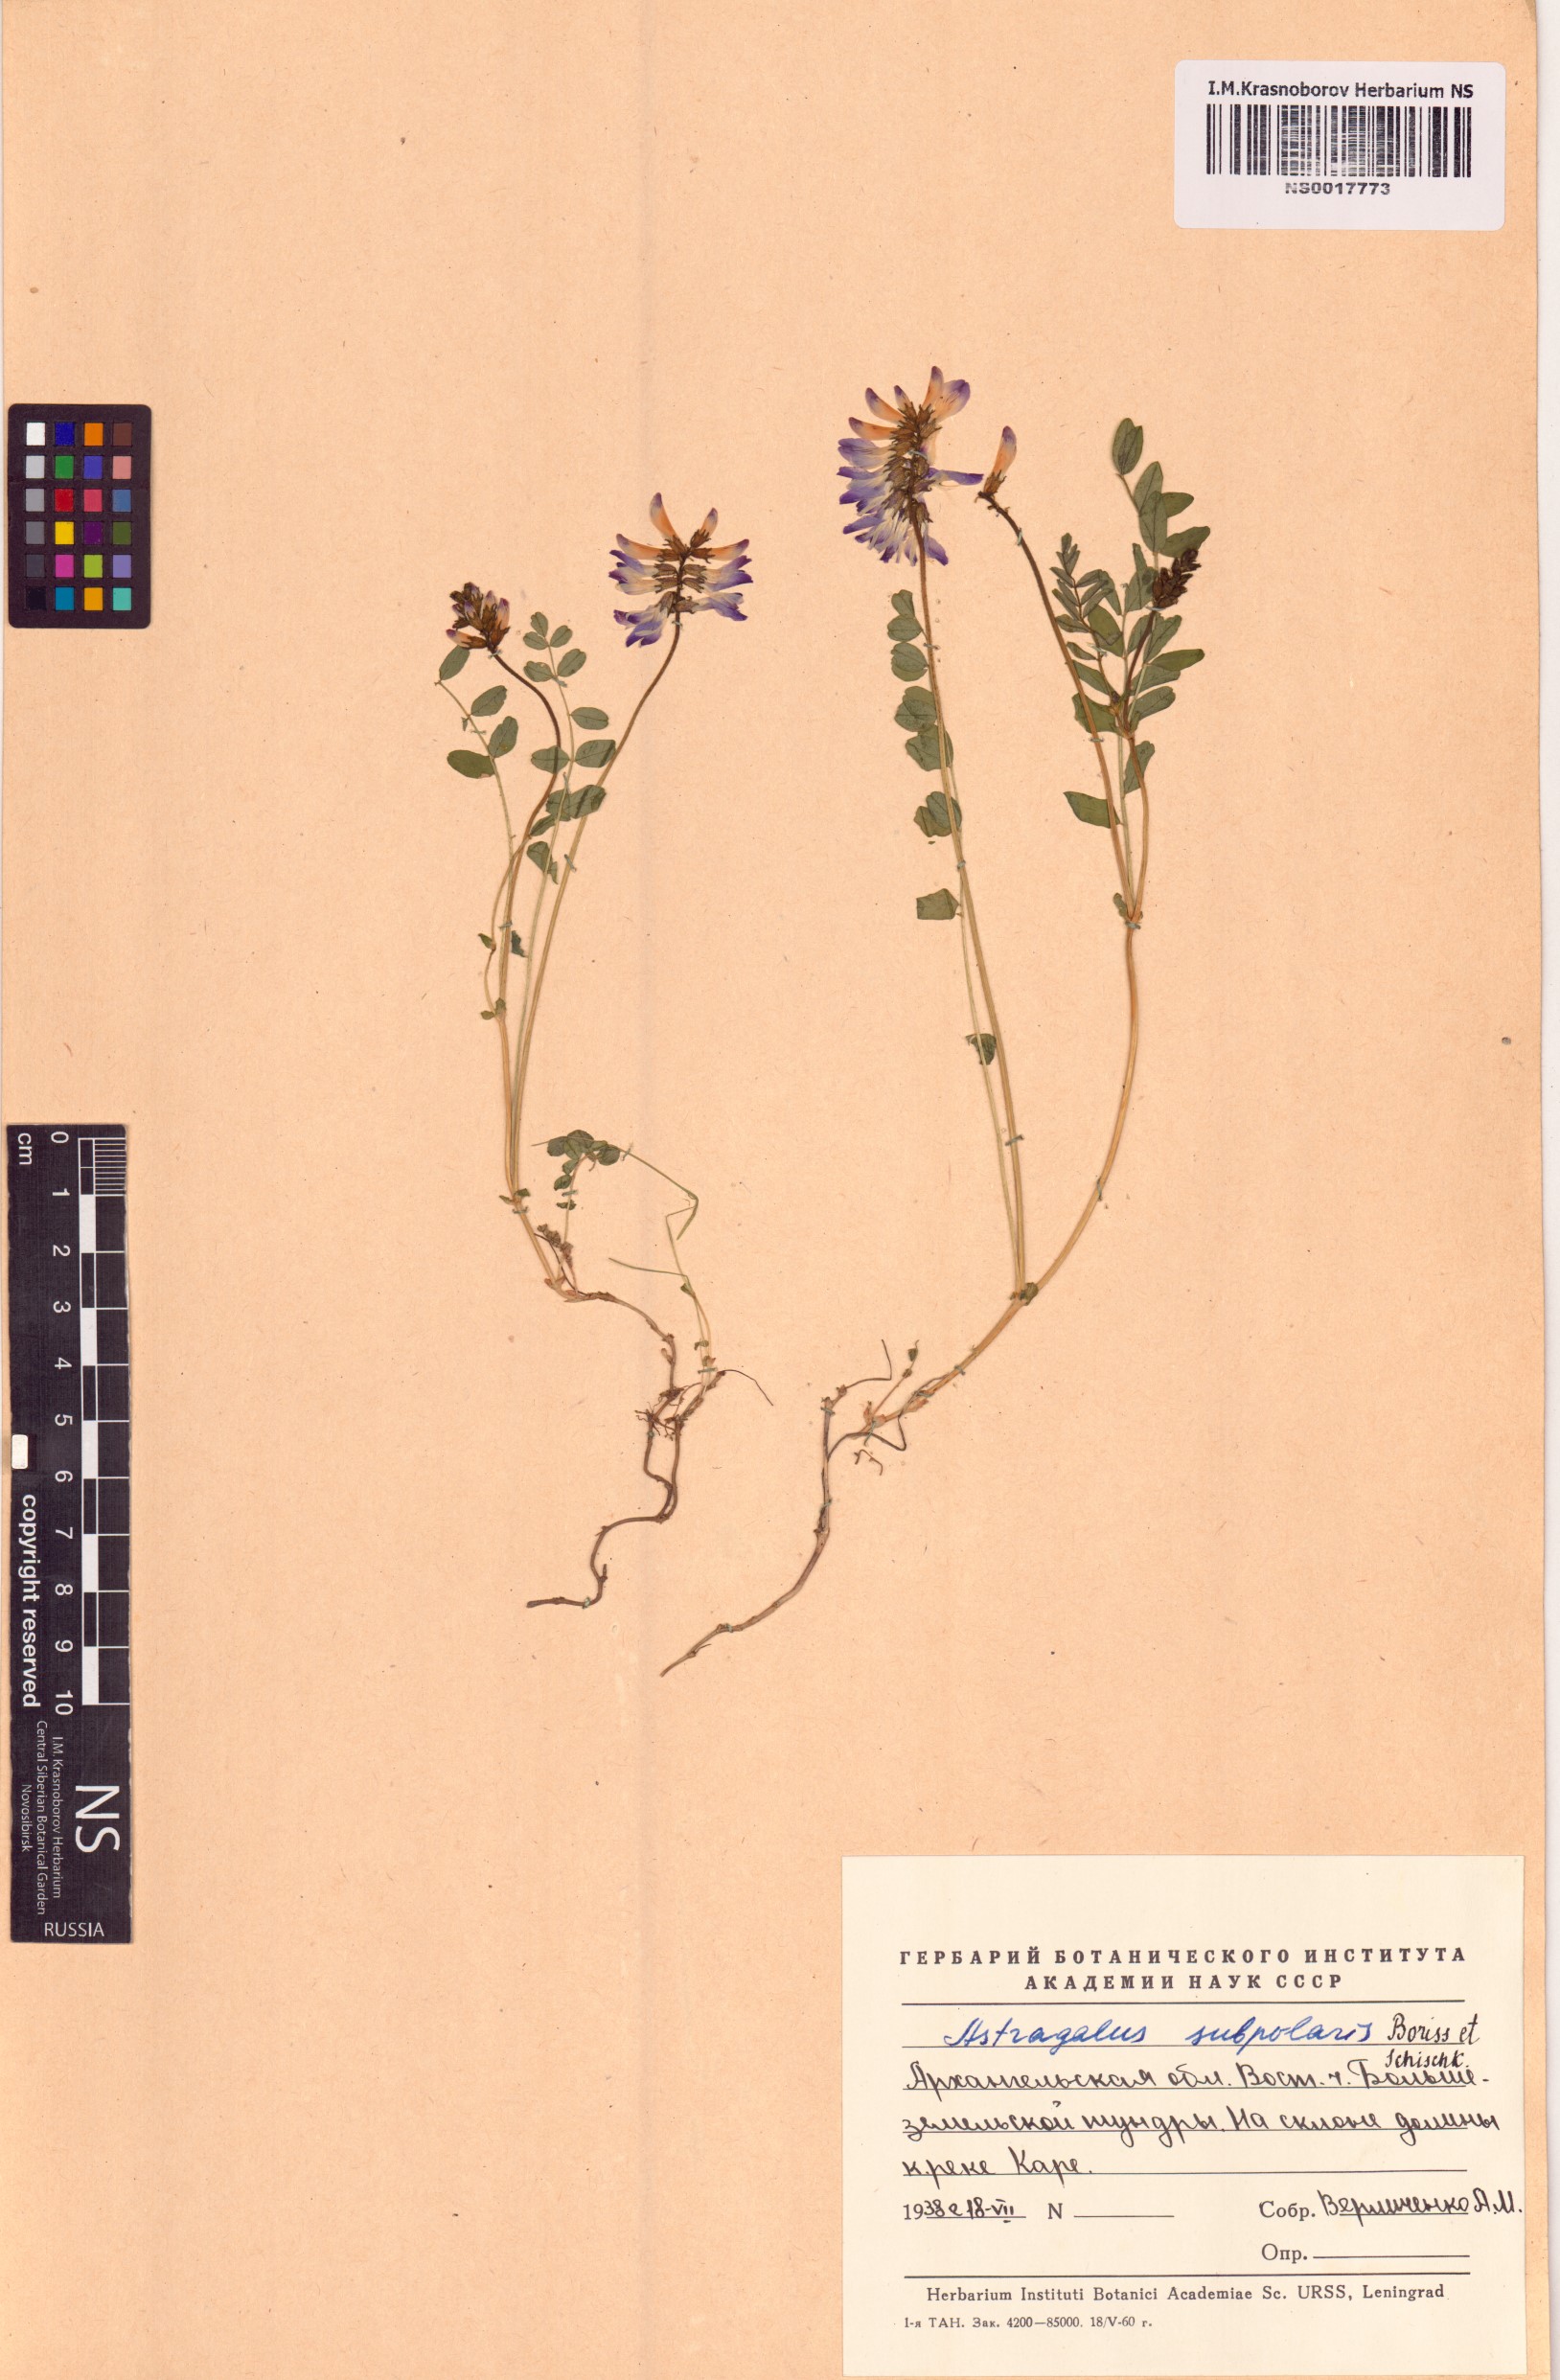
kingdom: Plantae
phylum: Tracheophyta
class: Magnoliopsida
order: Fabales
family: Fabaceae
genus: Astragalus
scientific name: Astragalus norvegicus
